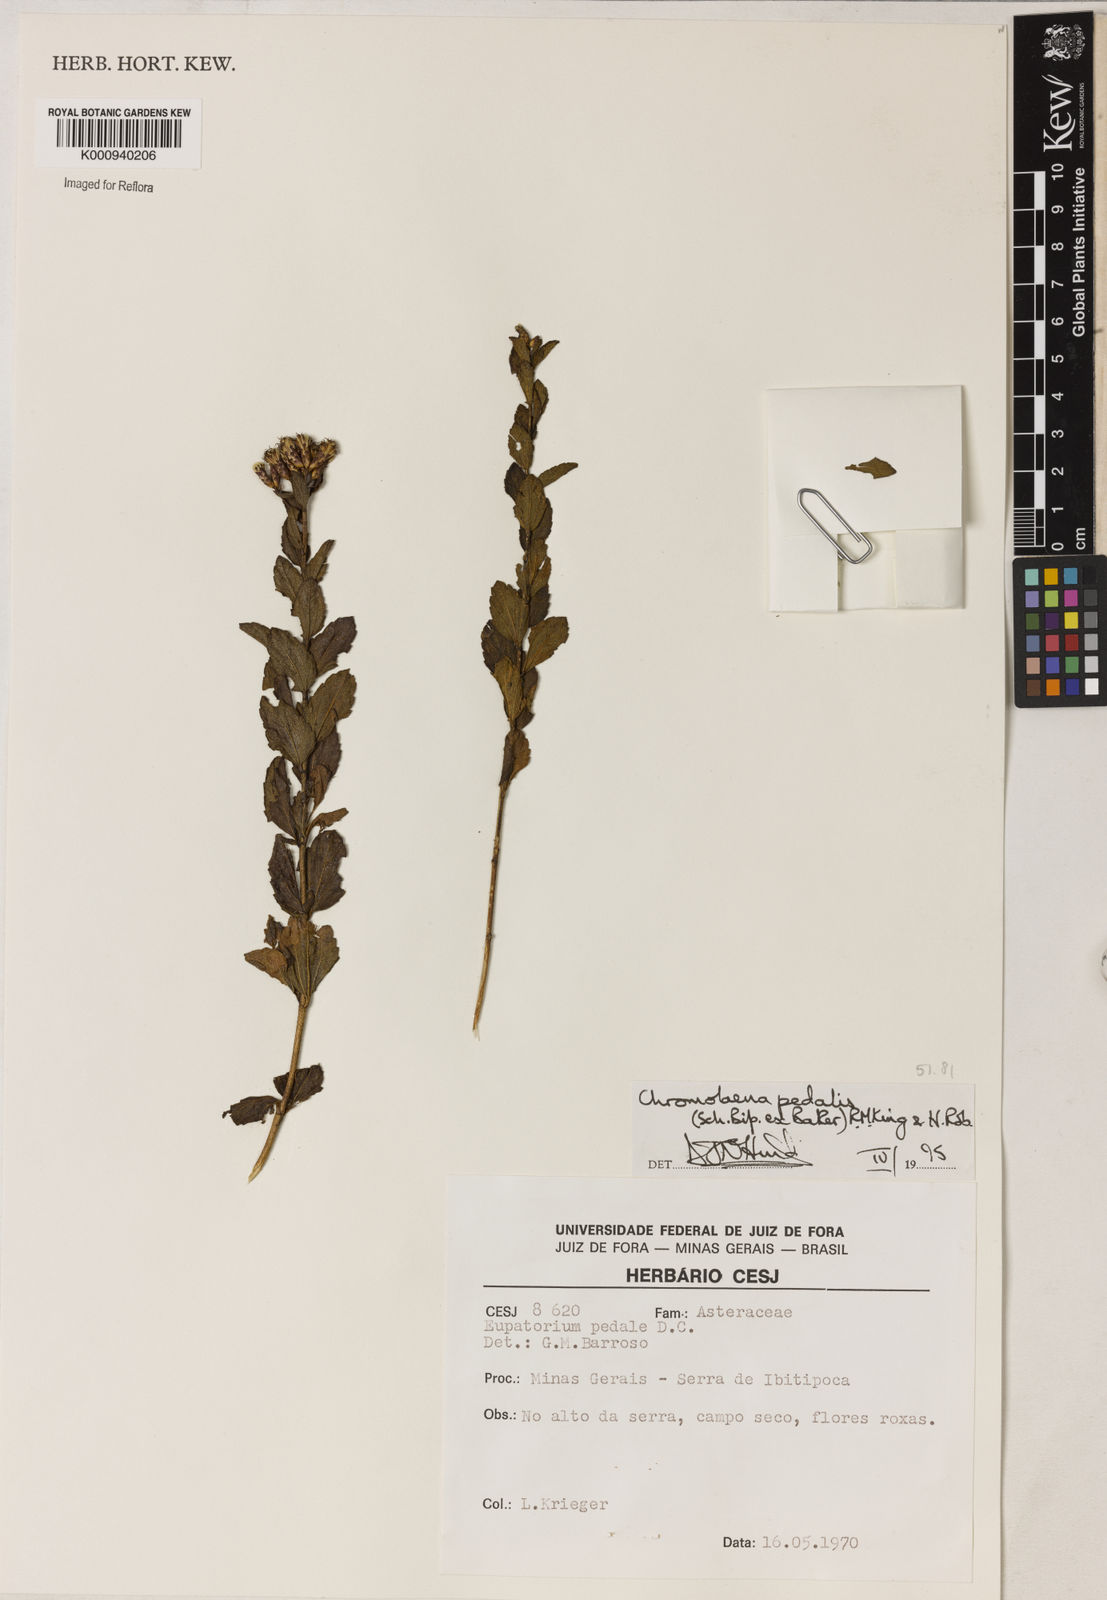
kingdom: Plantae
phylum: Tracheophyta
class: Magnoliopsida
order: Asterales
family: Asteraceae
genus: Chromolaena
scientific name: Chromolaena pedalis
